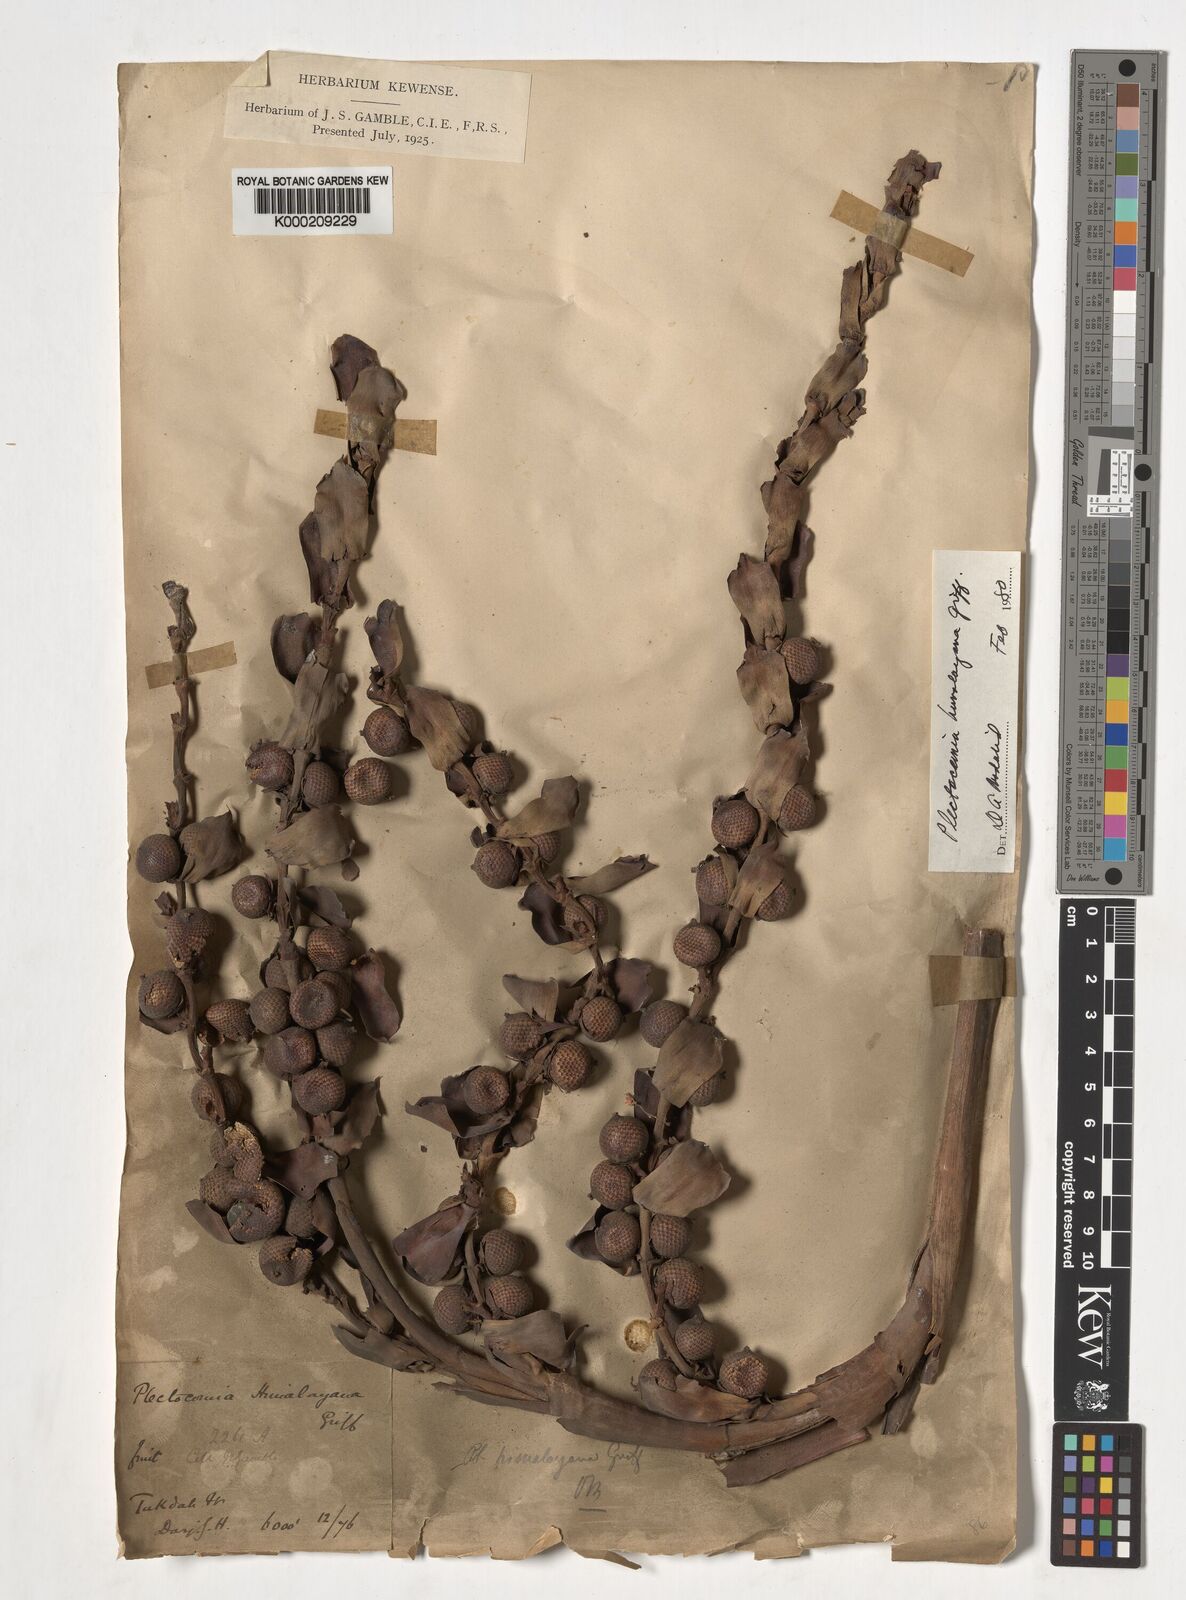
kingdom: Plantae
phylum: Tracheophyta
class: Liliopsida
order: Arecales
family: Arecaceae
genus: Plectocomia
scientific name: Plectocomia himalayana
